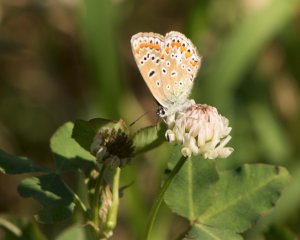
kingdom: Animalia
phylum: Arthropoda
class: Insecta
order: Lepidoptera
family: Lycaenidae
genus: Polyommatus
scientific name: Polyommatus icarus
